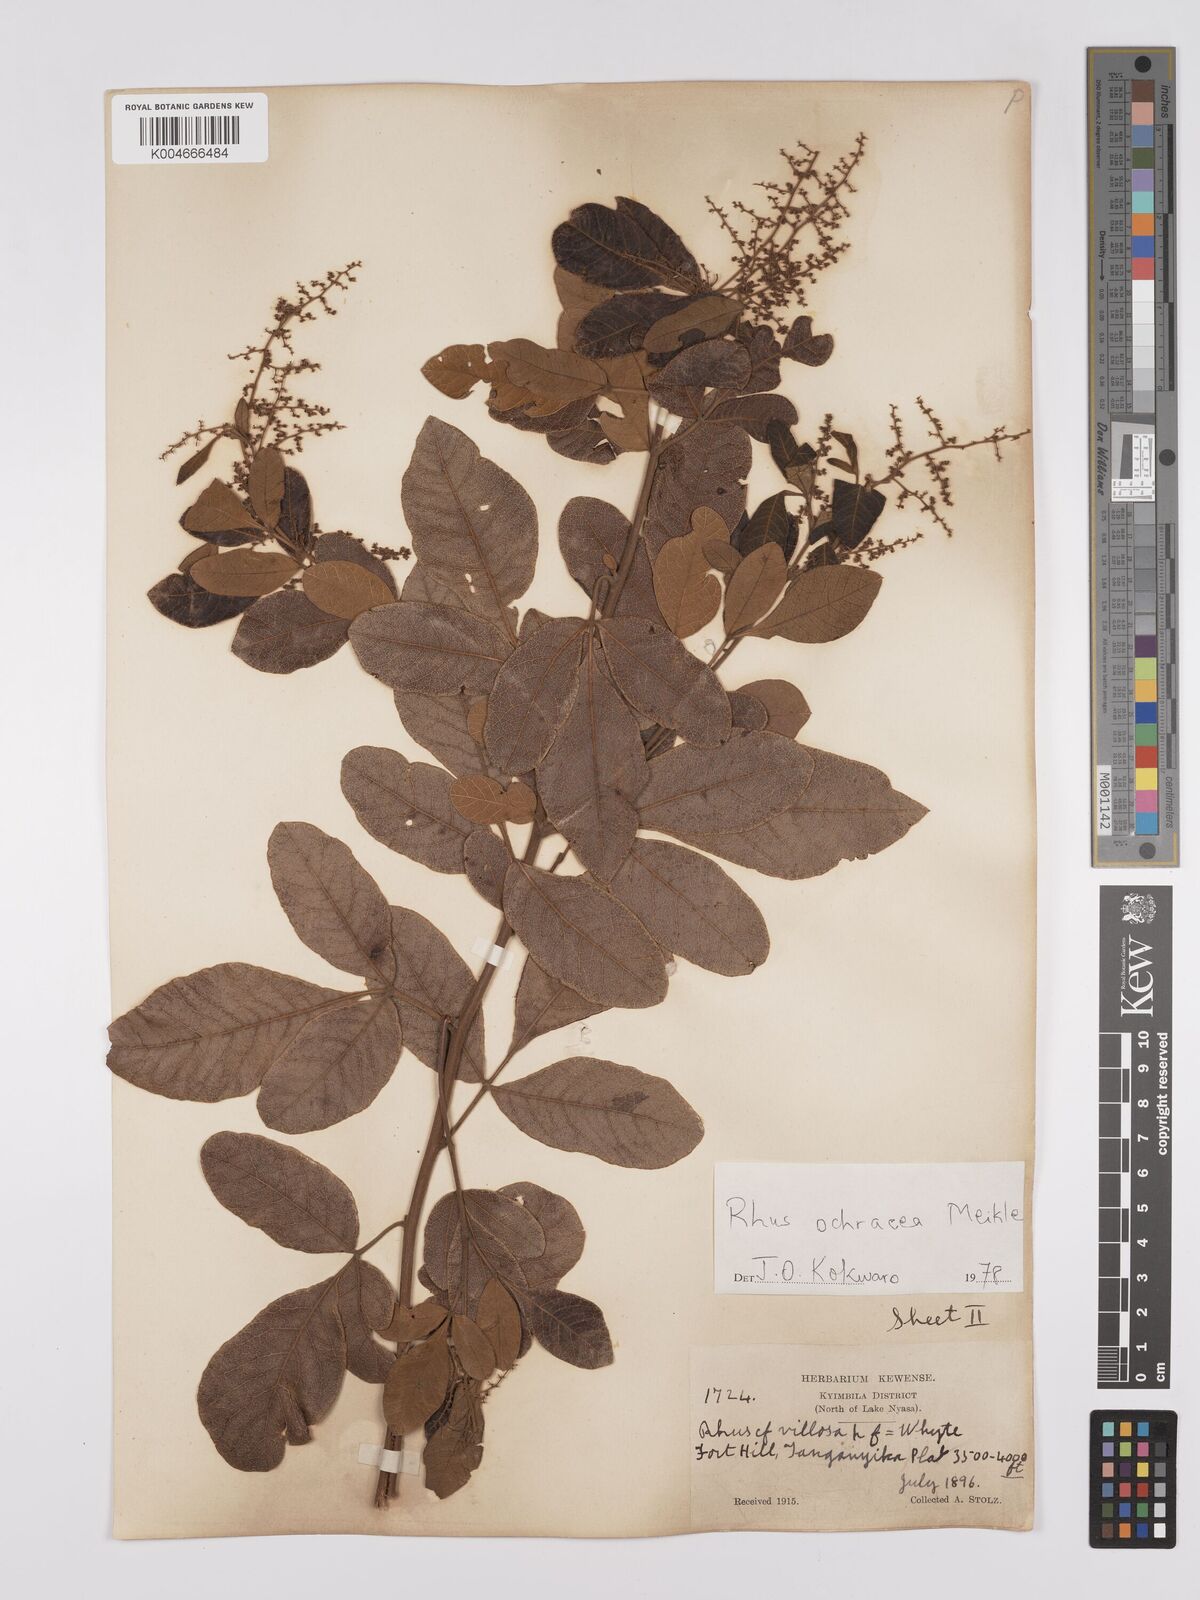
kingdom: Plantae
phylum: Tracheophyta
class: Magnoliopsida
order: Sapindales
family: Anacardiaceae
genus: Searsia
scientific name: Searsia ochracea
